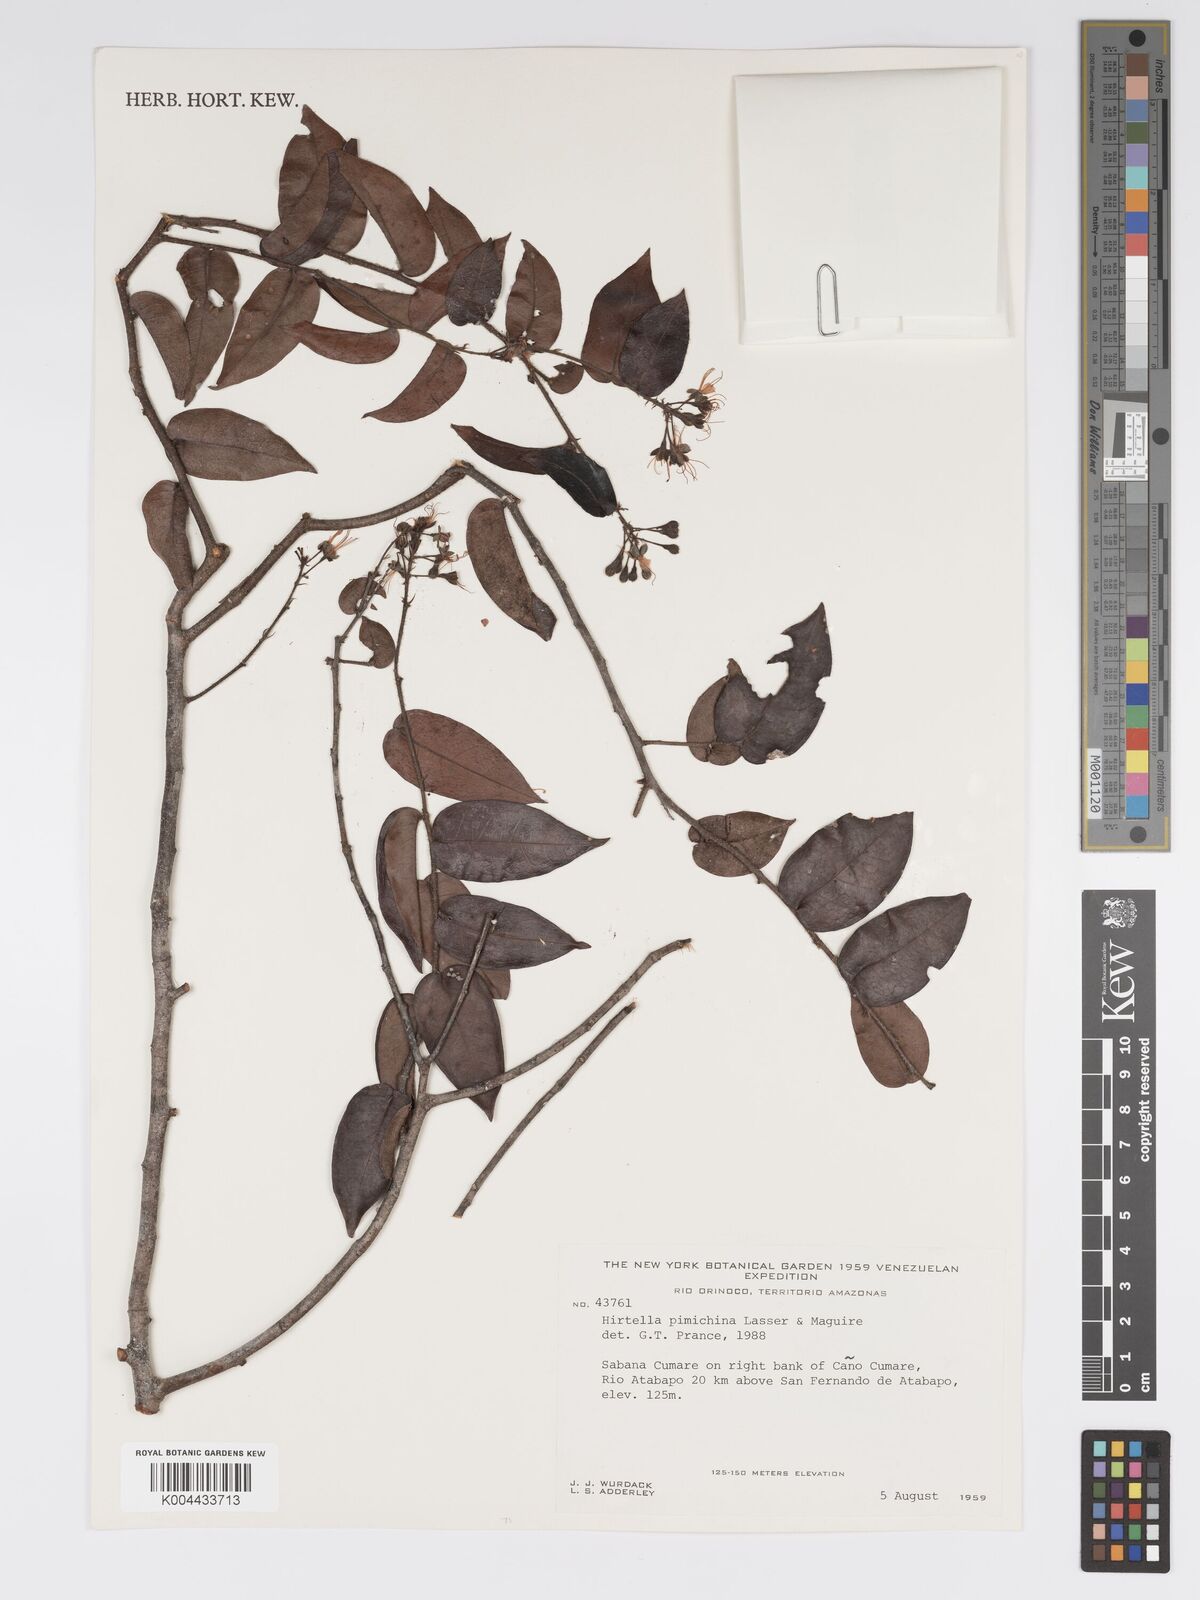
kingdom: Plantae
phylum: Tracheophyta
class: Magnoliopsida
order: Malpighiales
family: Chrysobalanaceae
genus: Hirtella
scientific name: Hirtella pimichina
